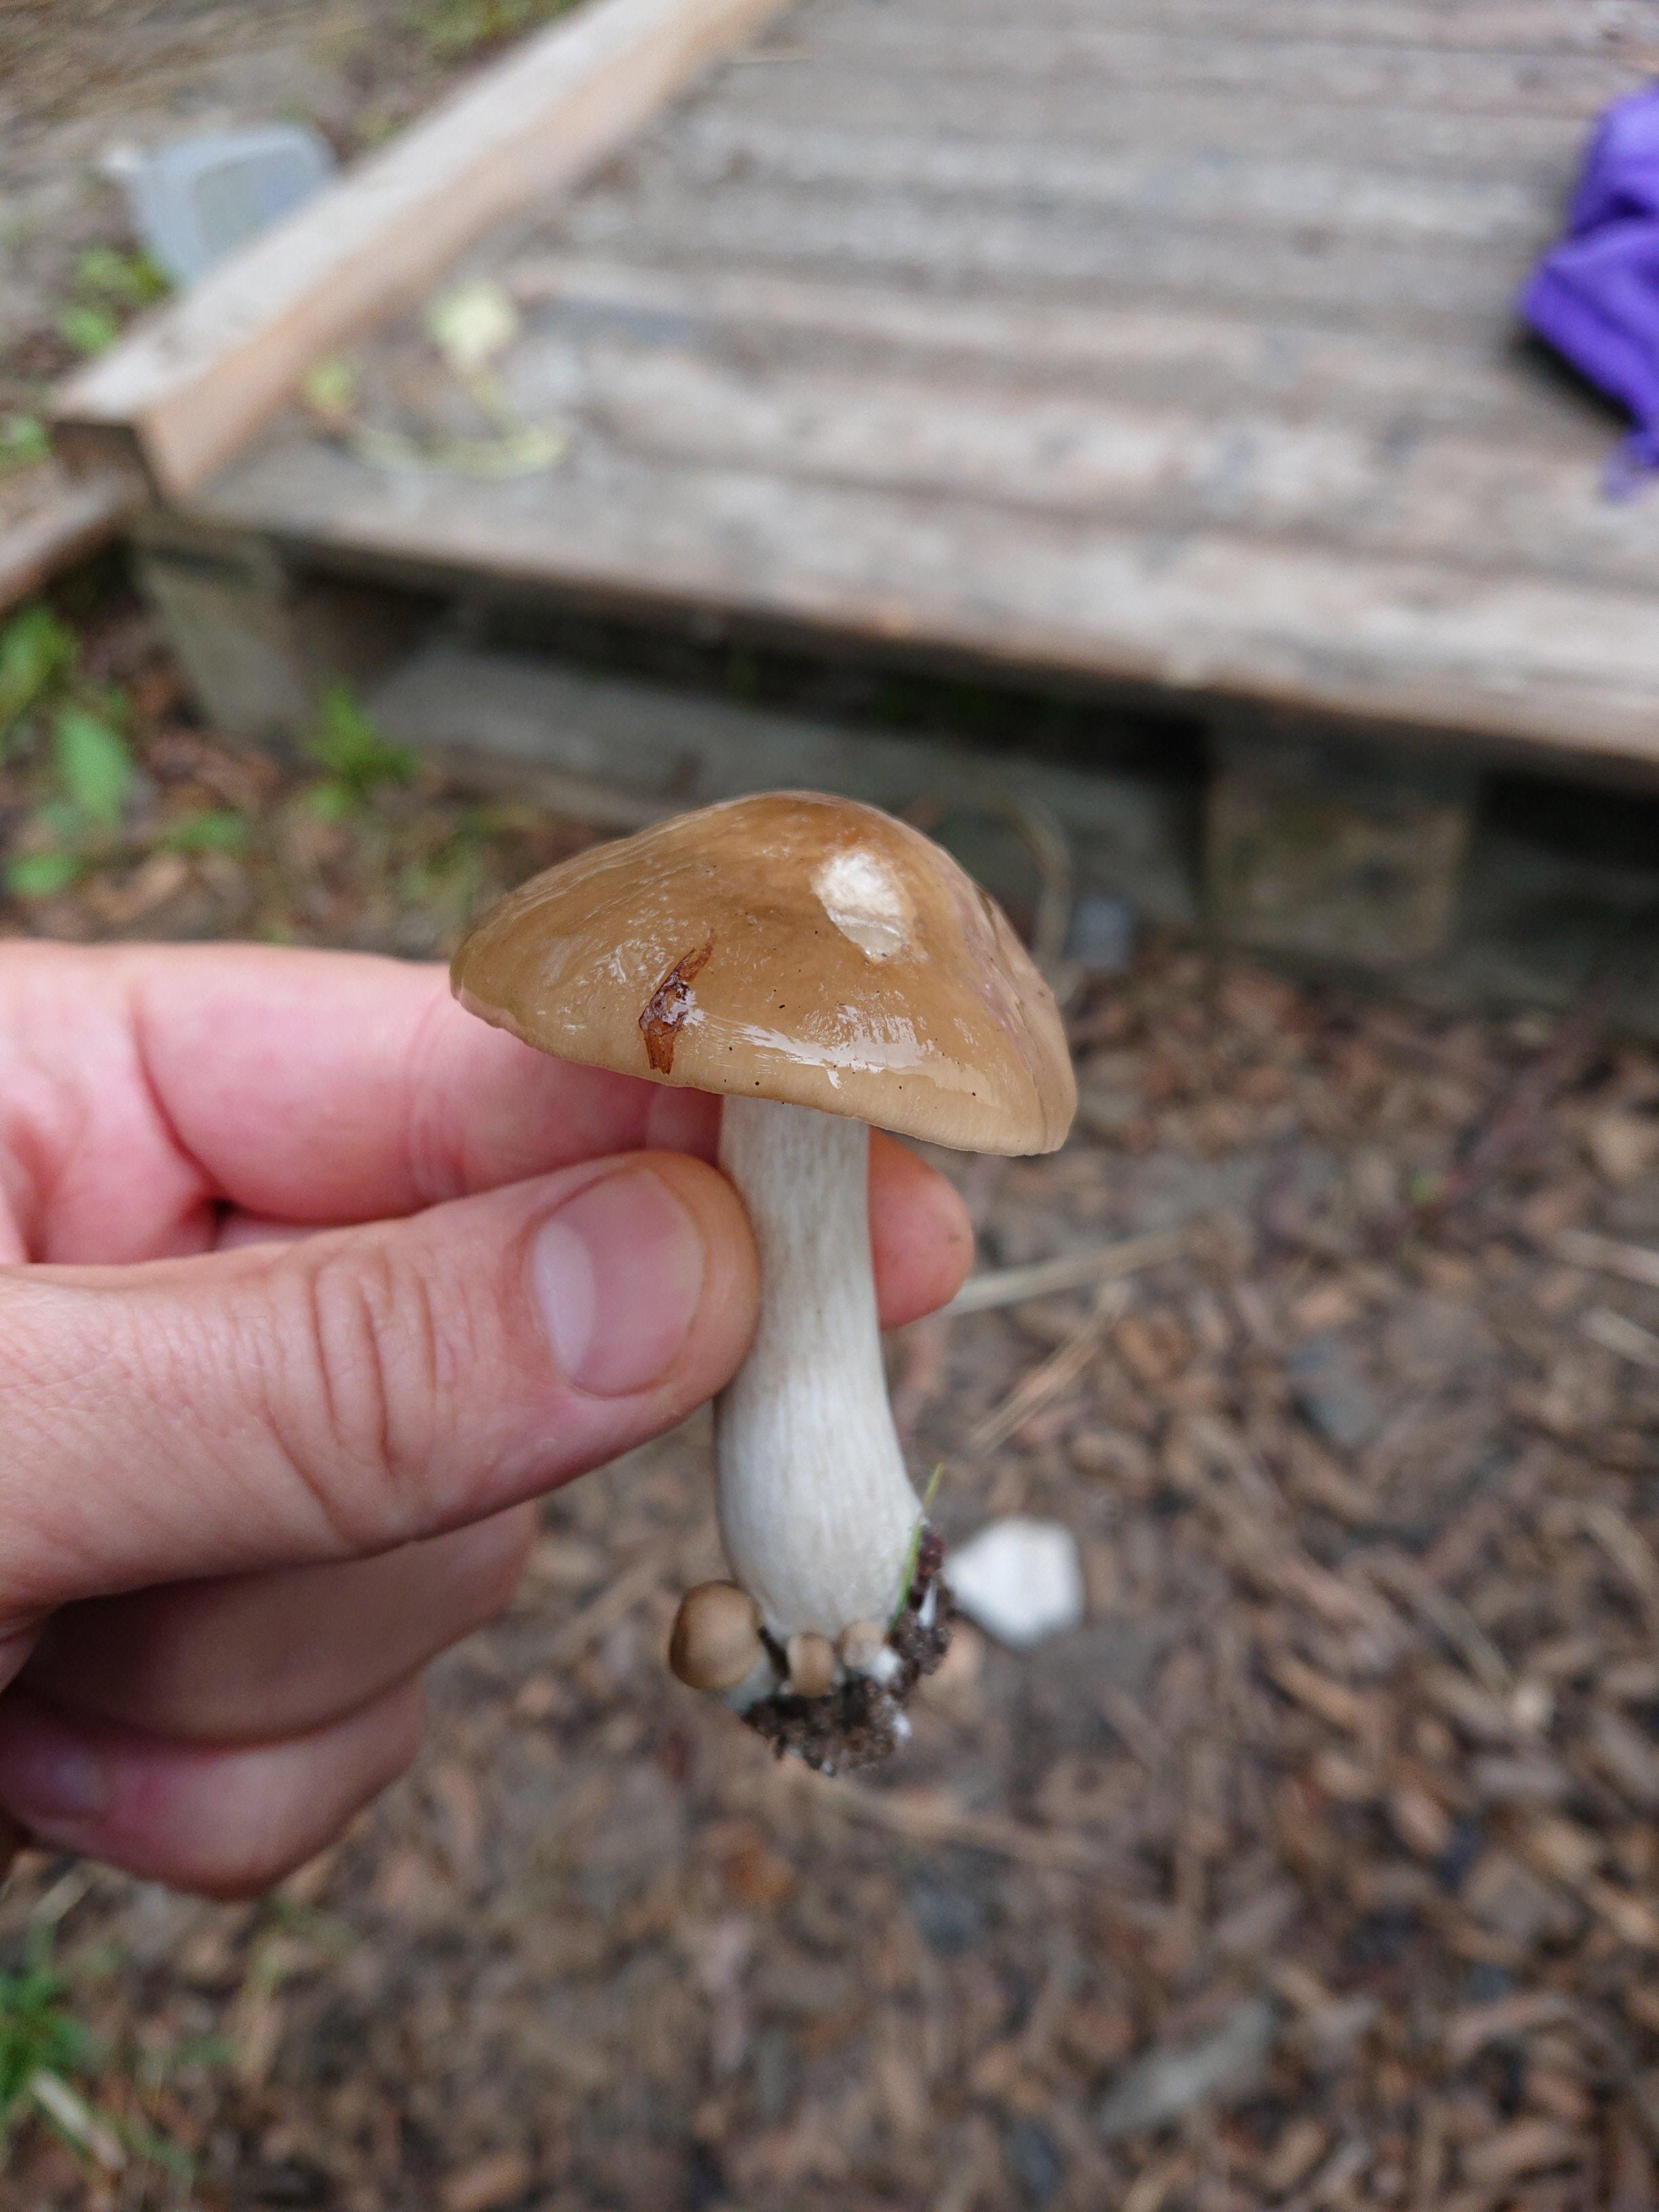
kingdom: Fungi
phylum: Basidiomycota
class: Agaricomycetes
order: Agaricales
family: Entolomataceae
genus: Entoloma
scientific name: Entoloma lividoalbum
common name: lysstokket rødblad
